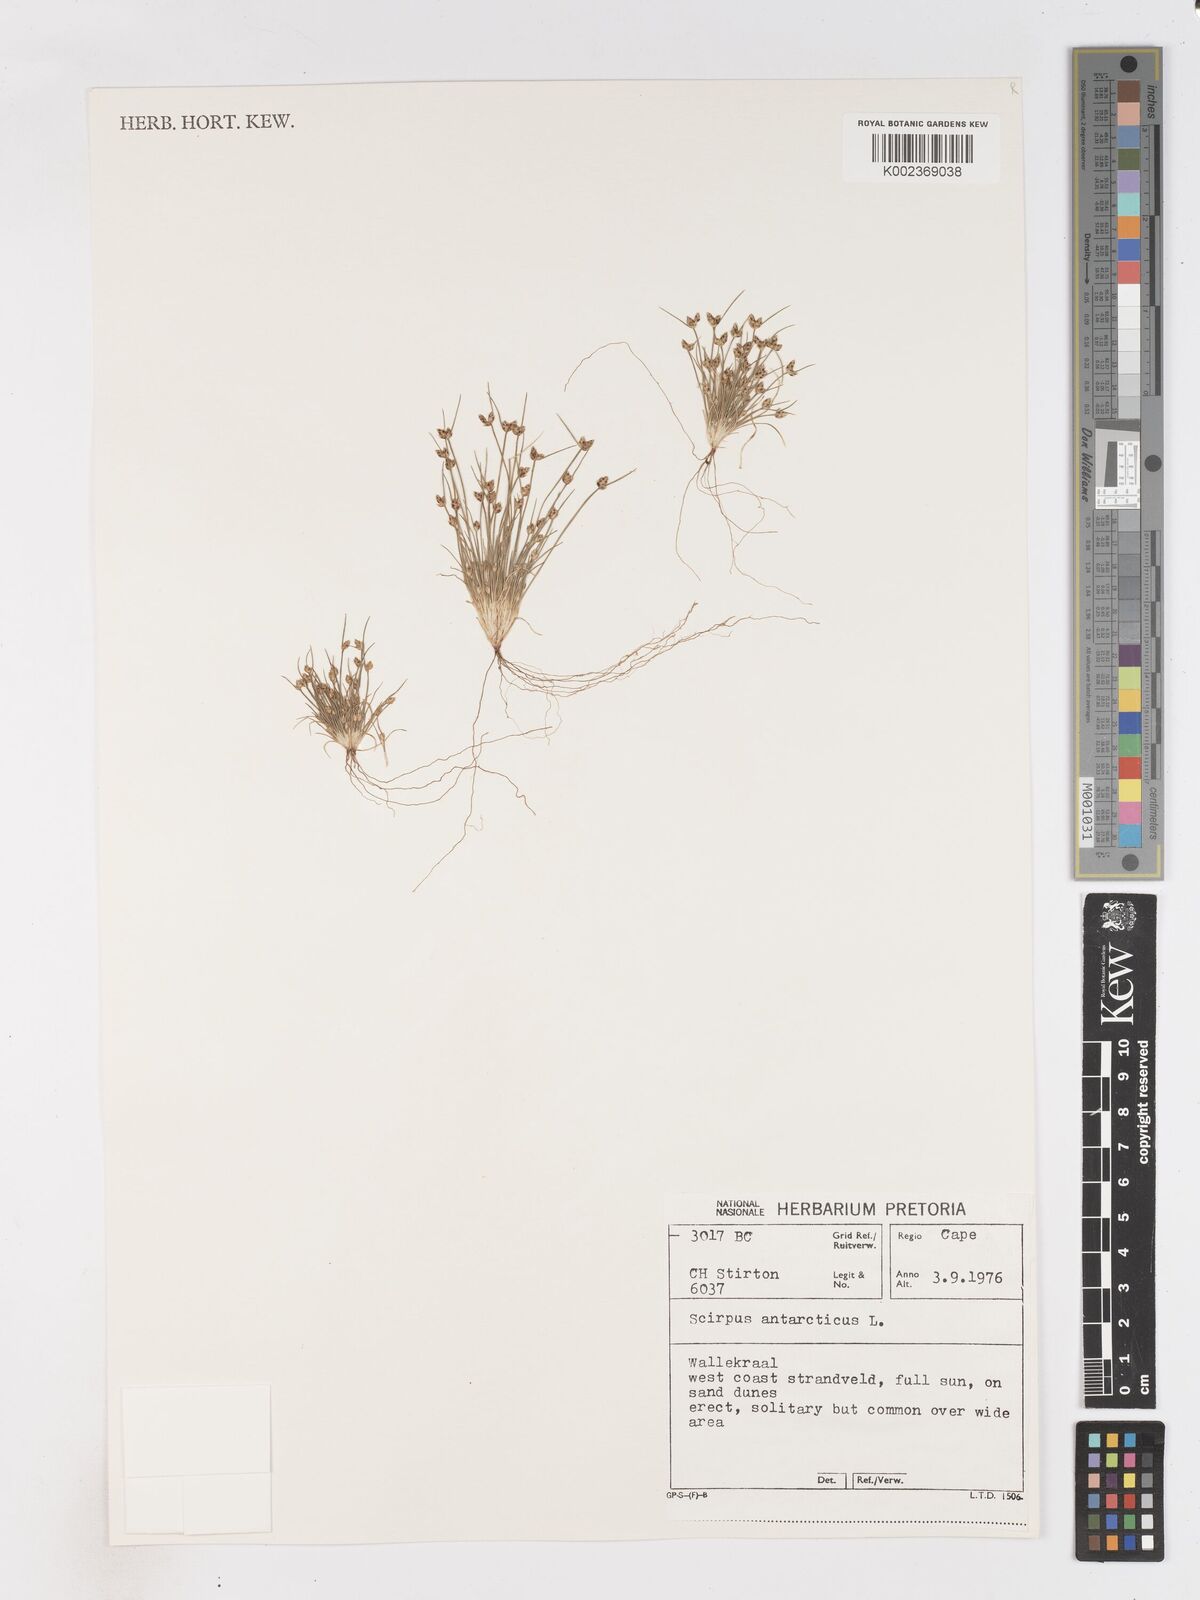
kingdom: Plantae
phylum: Tracheophyta
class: Liliopsida
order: Poales
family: Cyperaceae
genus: Isolepis
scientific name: Isolepis diabolica
